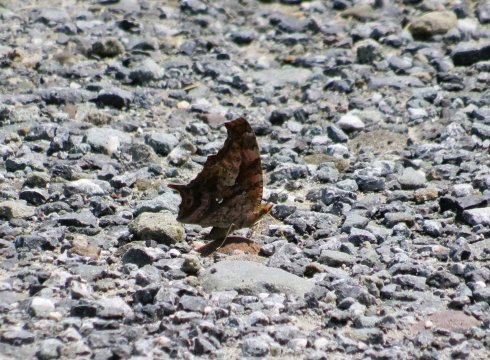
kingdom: Animalia
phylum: Arthropoda
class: Insecta
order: Lepidoptera
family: Nymphalidae
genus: Polygonia
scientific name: Polygonia interrogationis
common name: Question Mark
